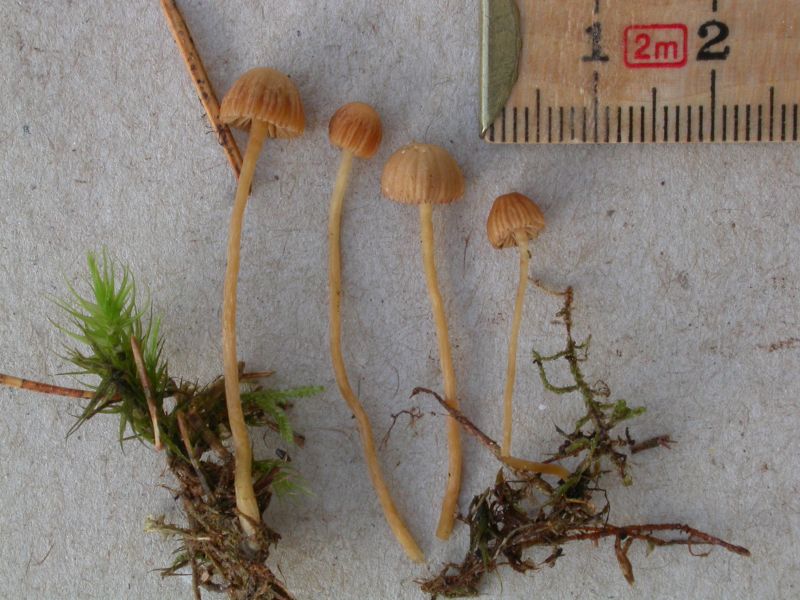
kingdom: Fungi
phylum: Basidiomycota
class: Agaricomycetes
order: Agaricales
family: Hymenogastraceae
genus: Galerina
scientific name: Galerina calyptrata
